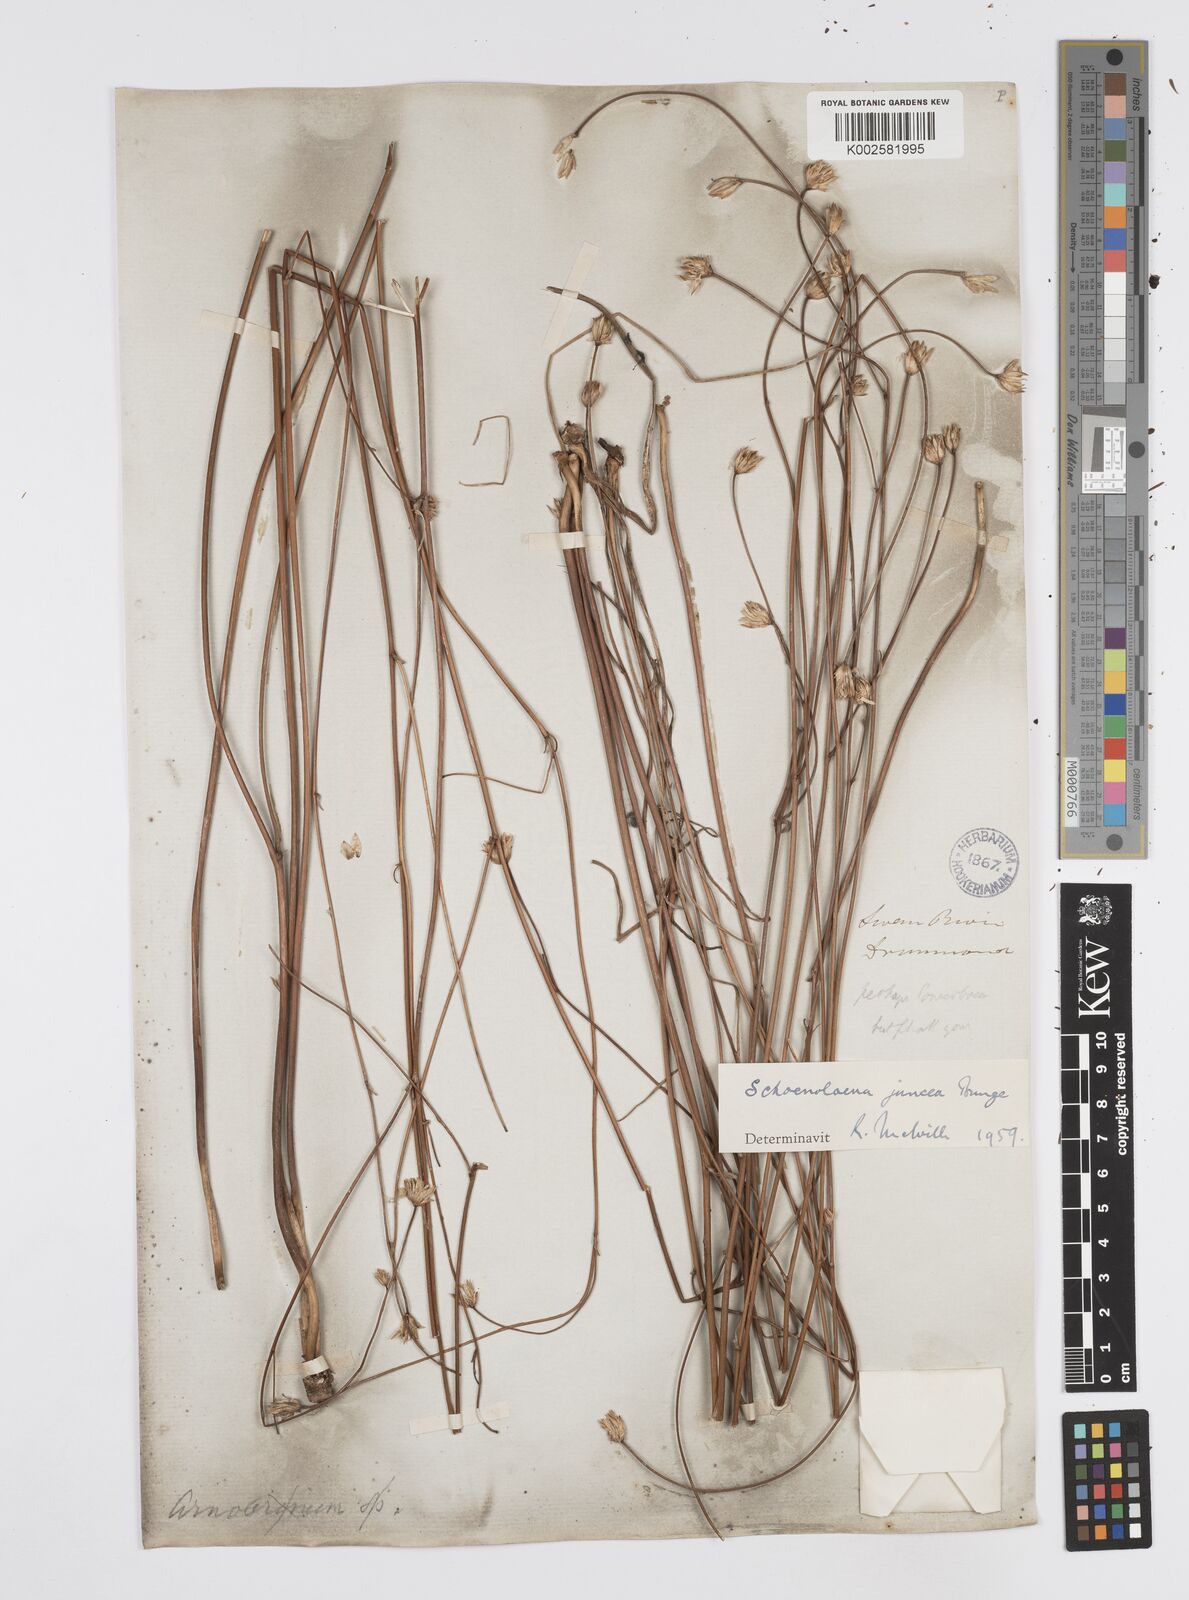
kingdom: Plantae
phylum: Tracheophyta
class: Magnoliopsida
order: Apiales
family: Apiaceae
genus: Schoenolaena
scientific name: Schoenolaena juncea
